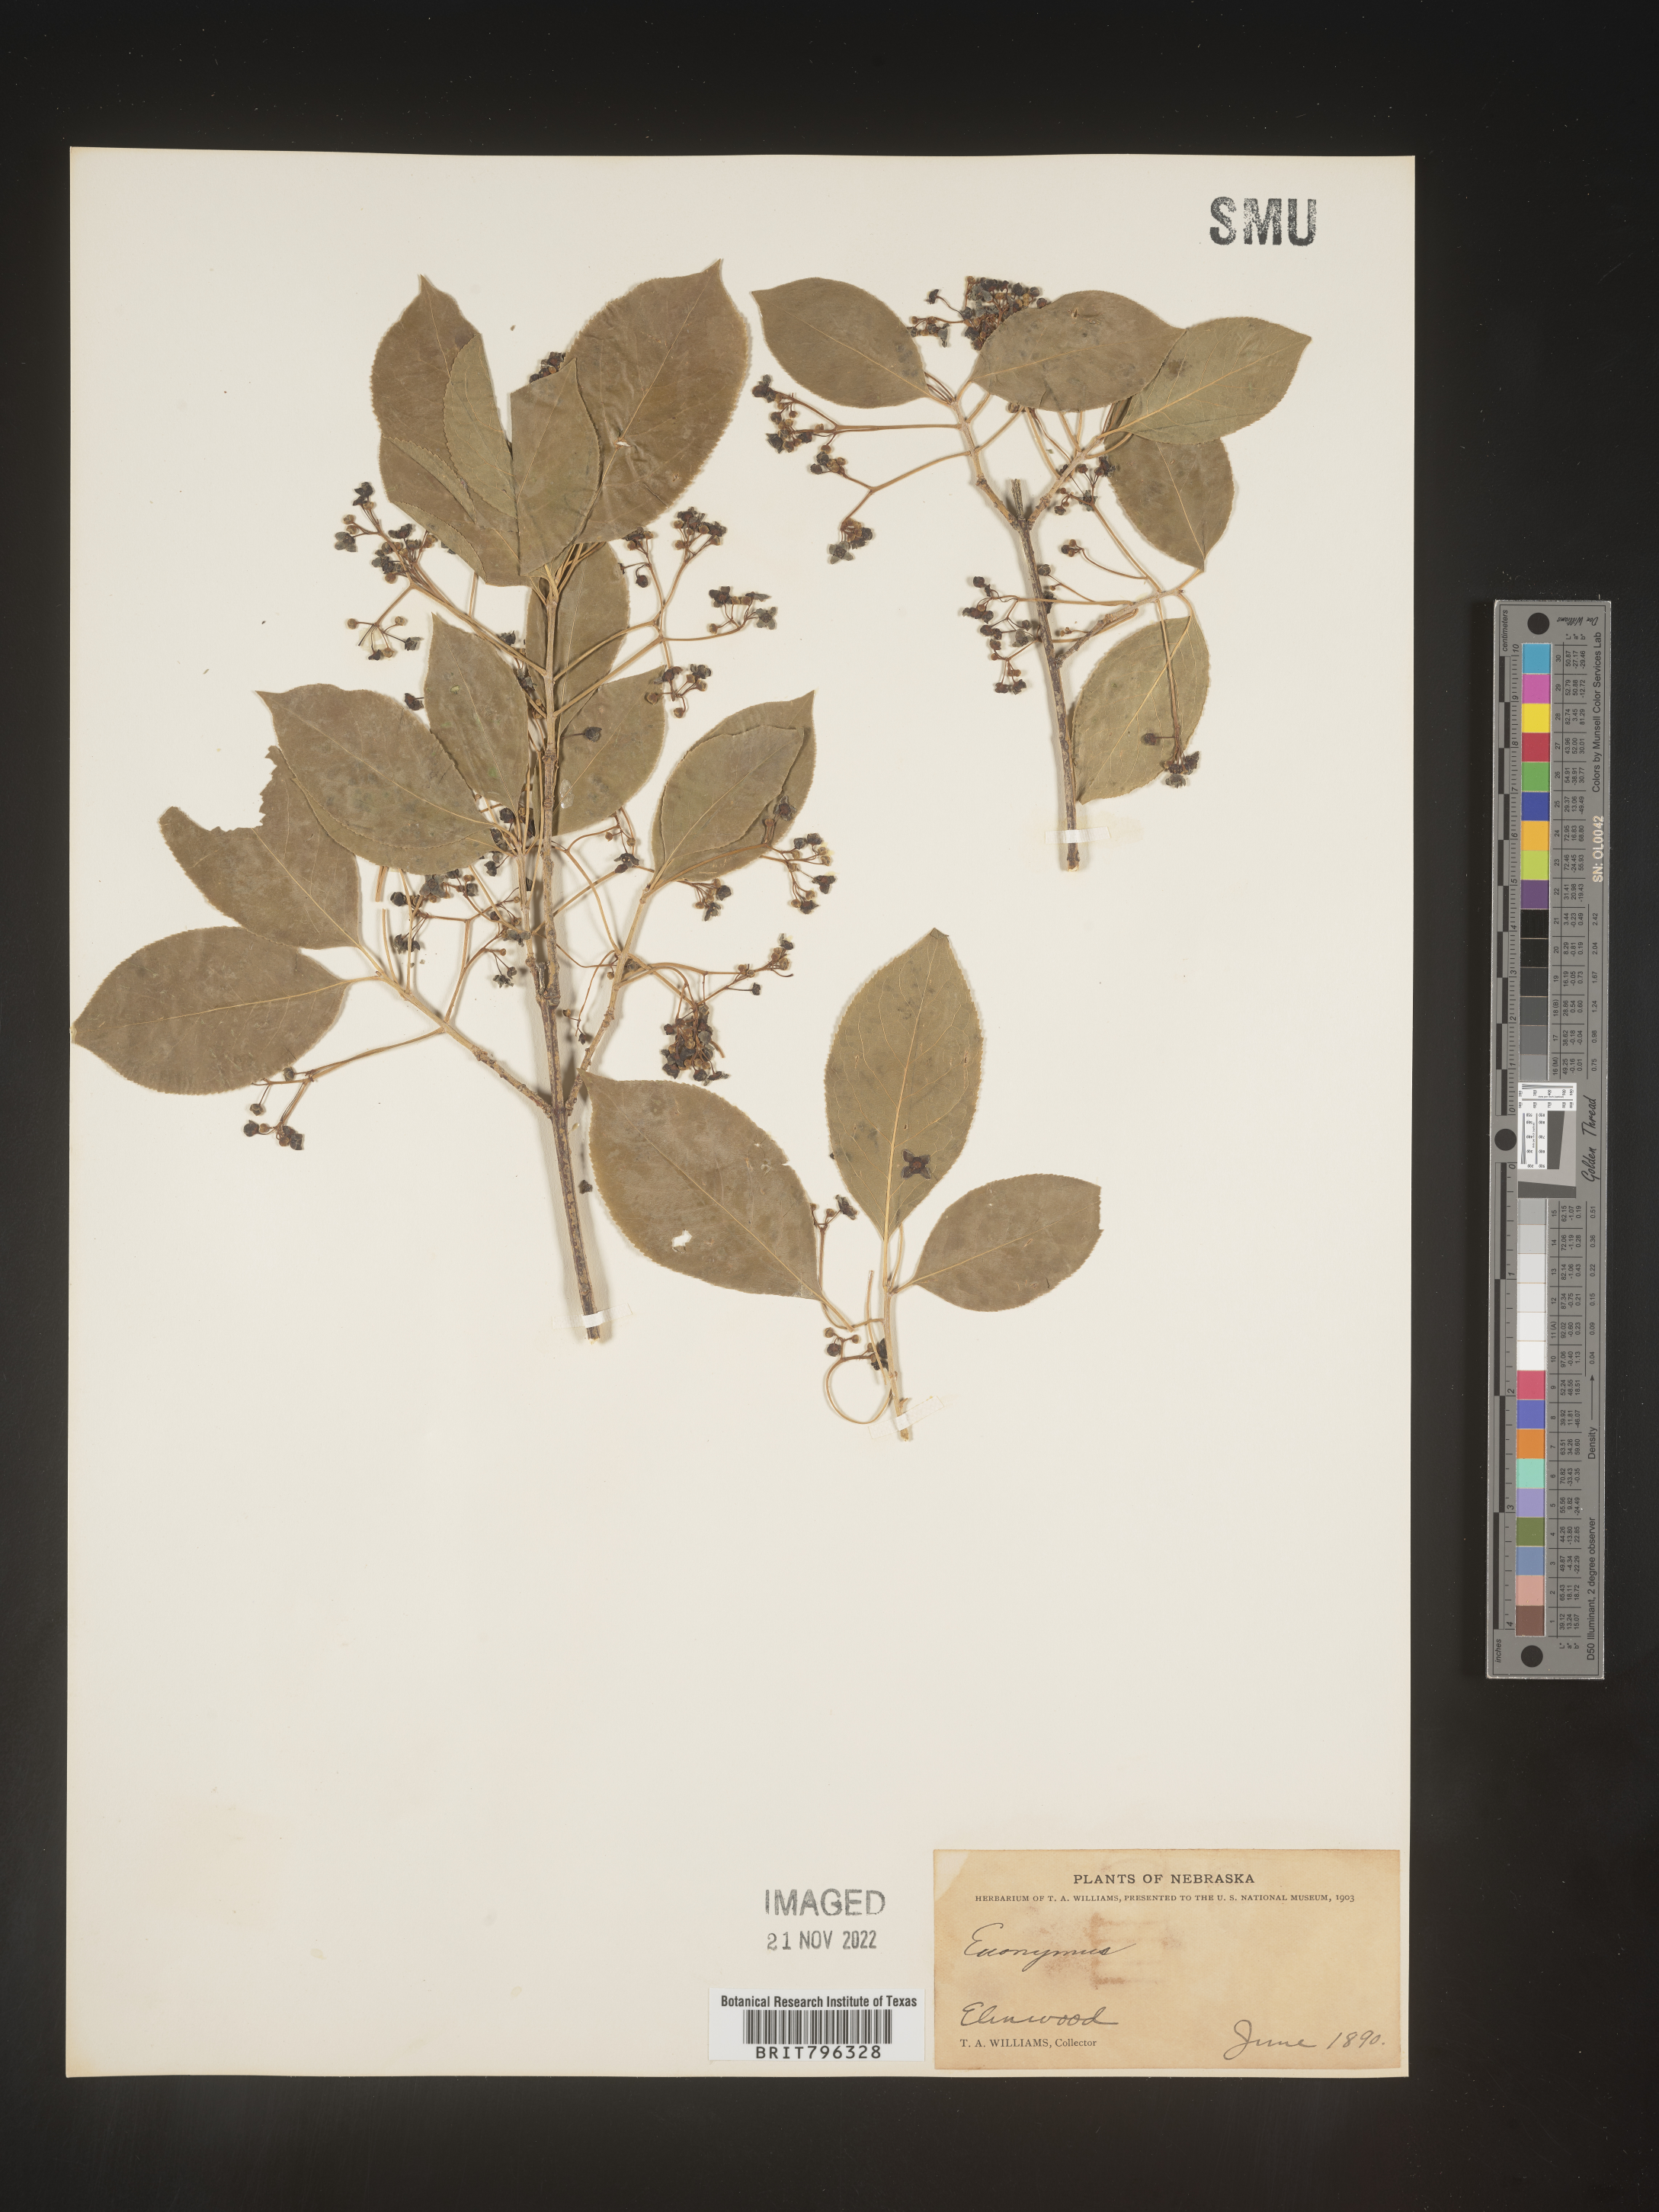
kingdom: Plantae
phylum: Tracheophyta
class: Magnoliopsida
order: Celastrales
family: Celastraceae
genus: Euonymus
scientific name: Euonymus
